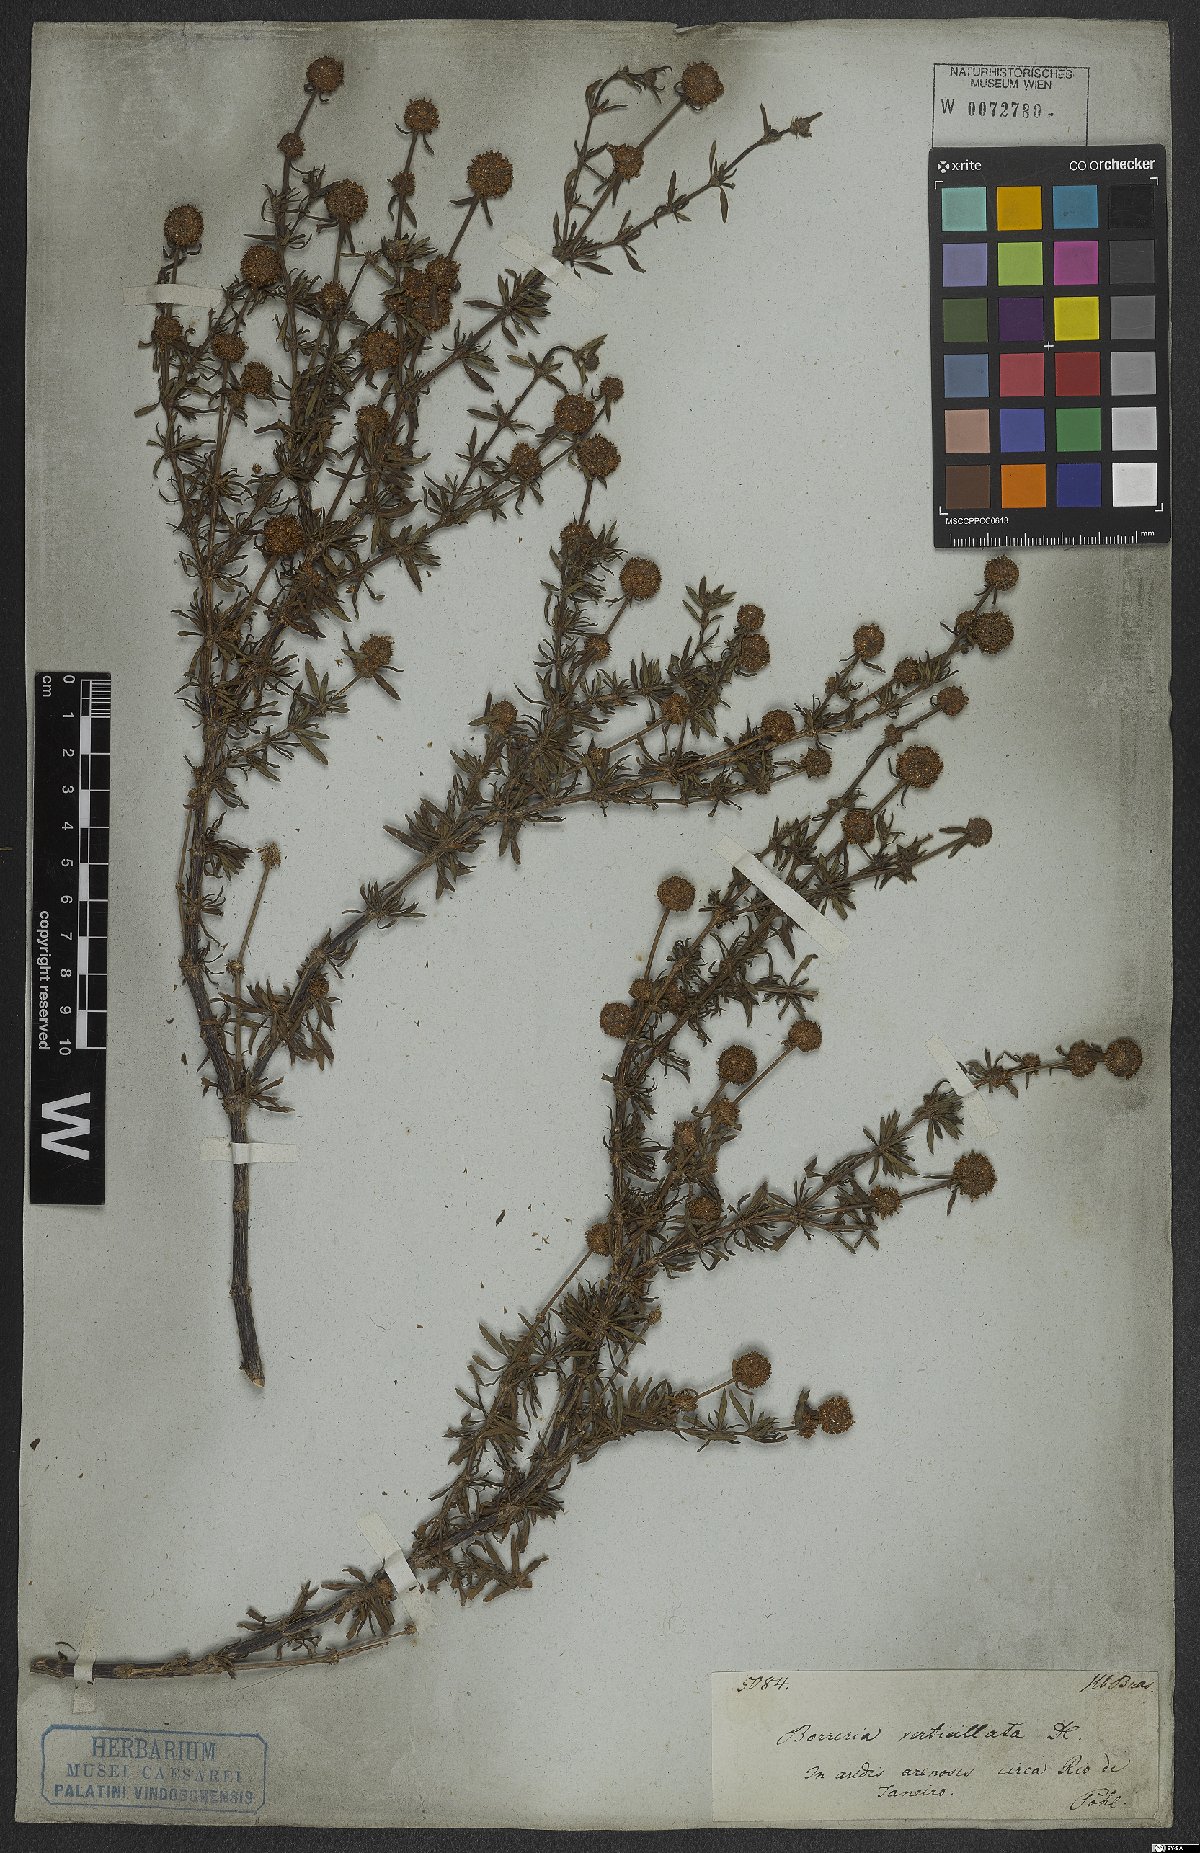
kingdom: Plantae
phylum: Tracheophyta
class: Magnoliopsida
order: Gentianales
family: Rubiaceae
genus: Spermacoce
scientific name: Spermacoce verticillata
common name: Shrubby false buttonweed
